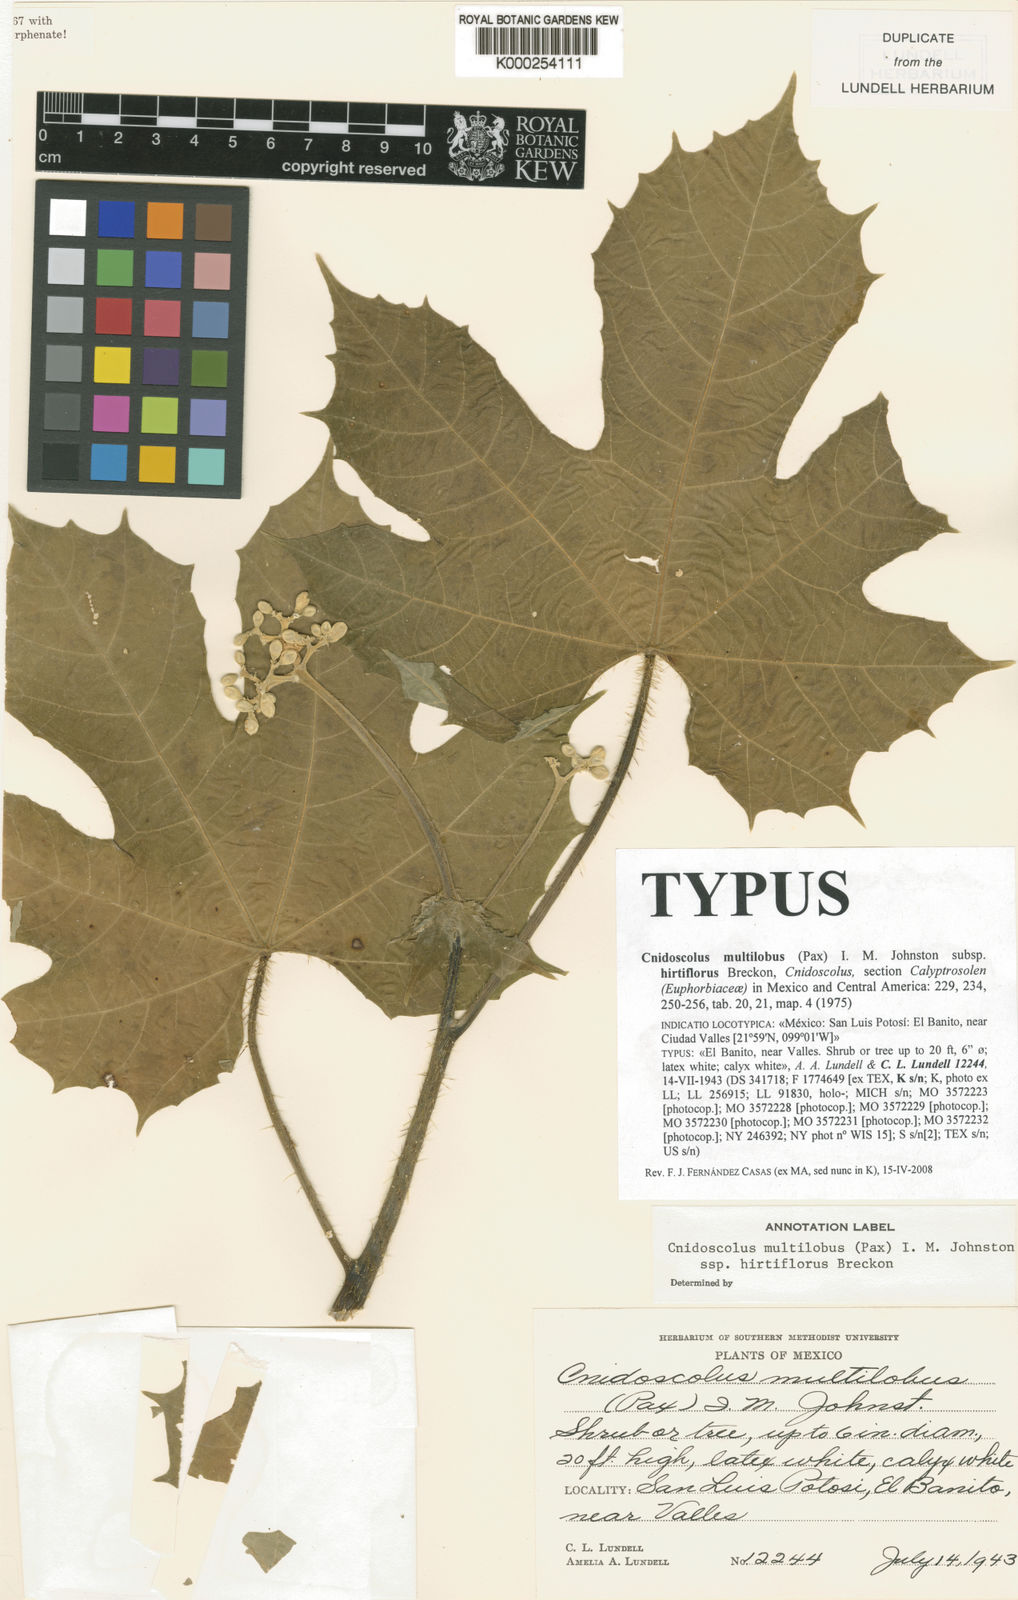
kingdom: Plantae
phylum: Tracheophyta
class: Magnoliopsida
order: Malpighiales
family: Euphorbiaceae
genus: Cnidoscolus
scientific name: Cnidoscolus multilobus
